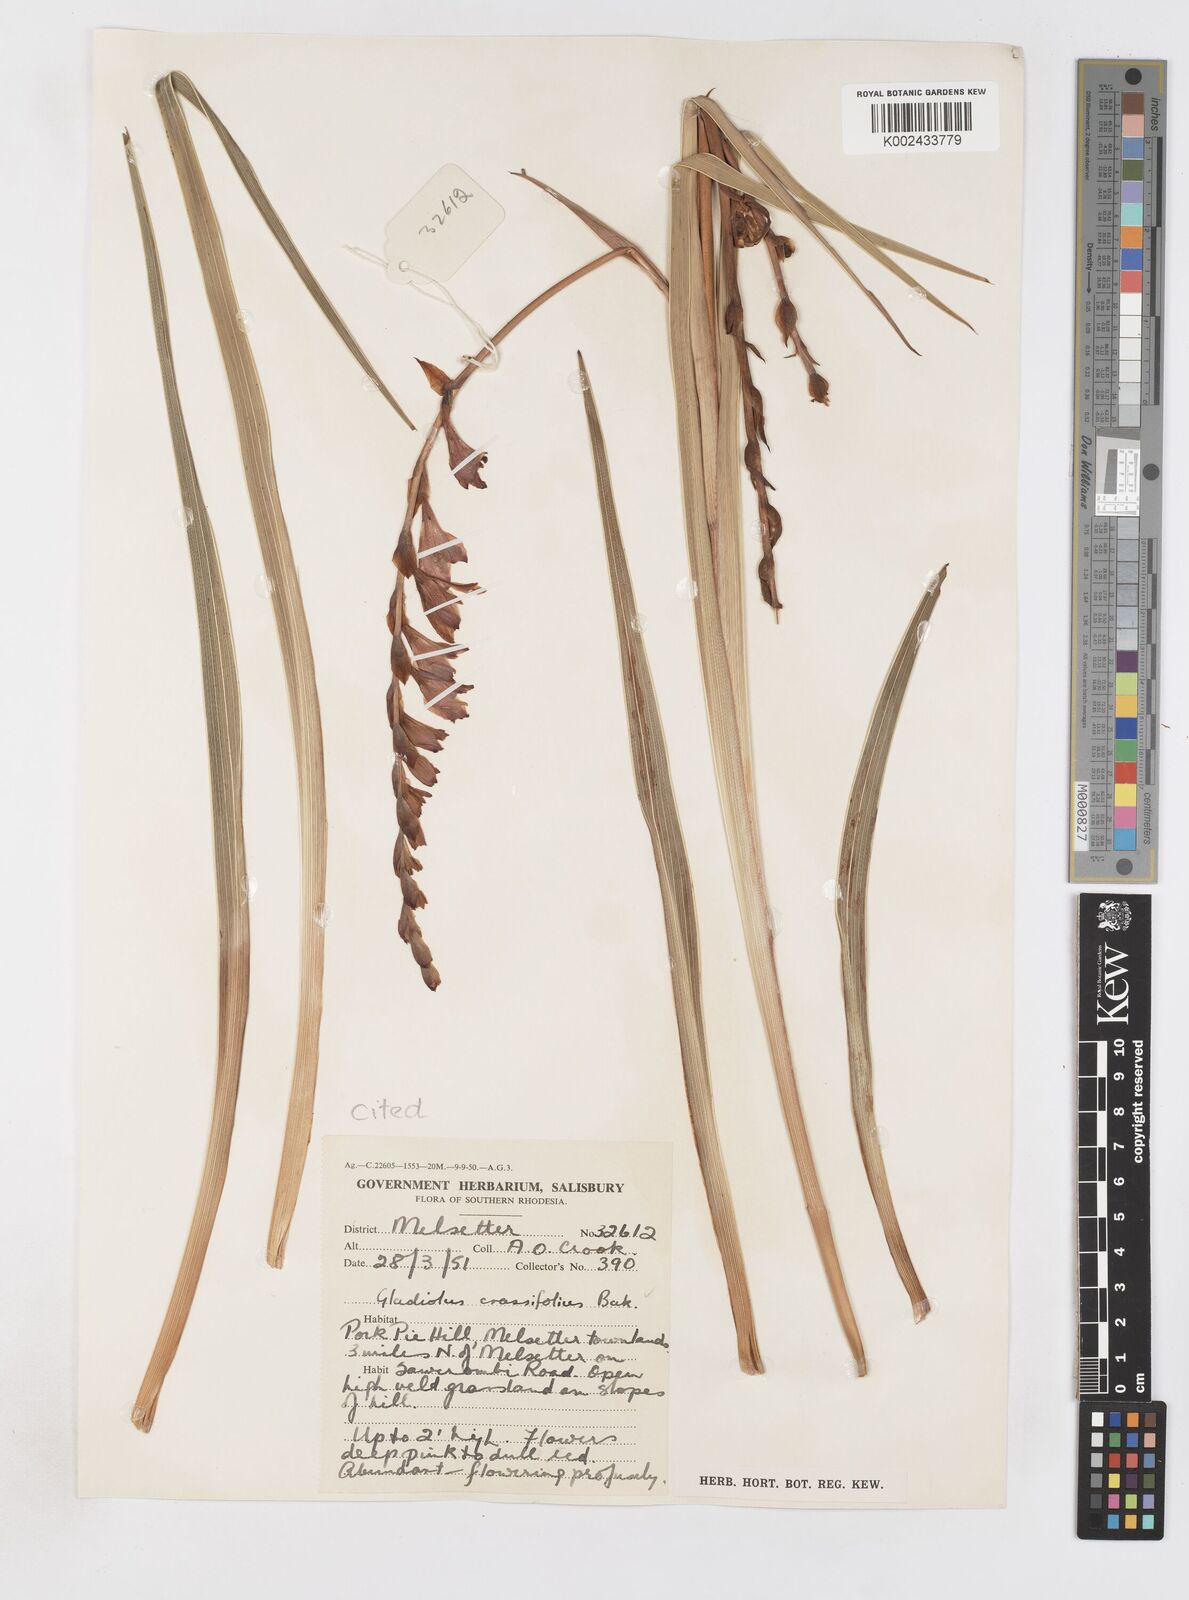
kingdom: Plantae
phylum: Tracheophyta
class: Liliopsida
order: Asparagales
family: Iridaceae
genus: Gladiolus
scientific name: Gladiolus crassifolius
